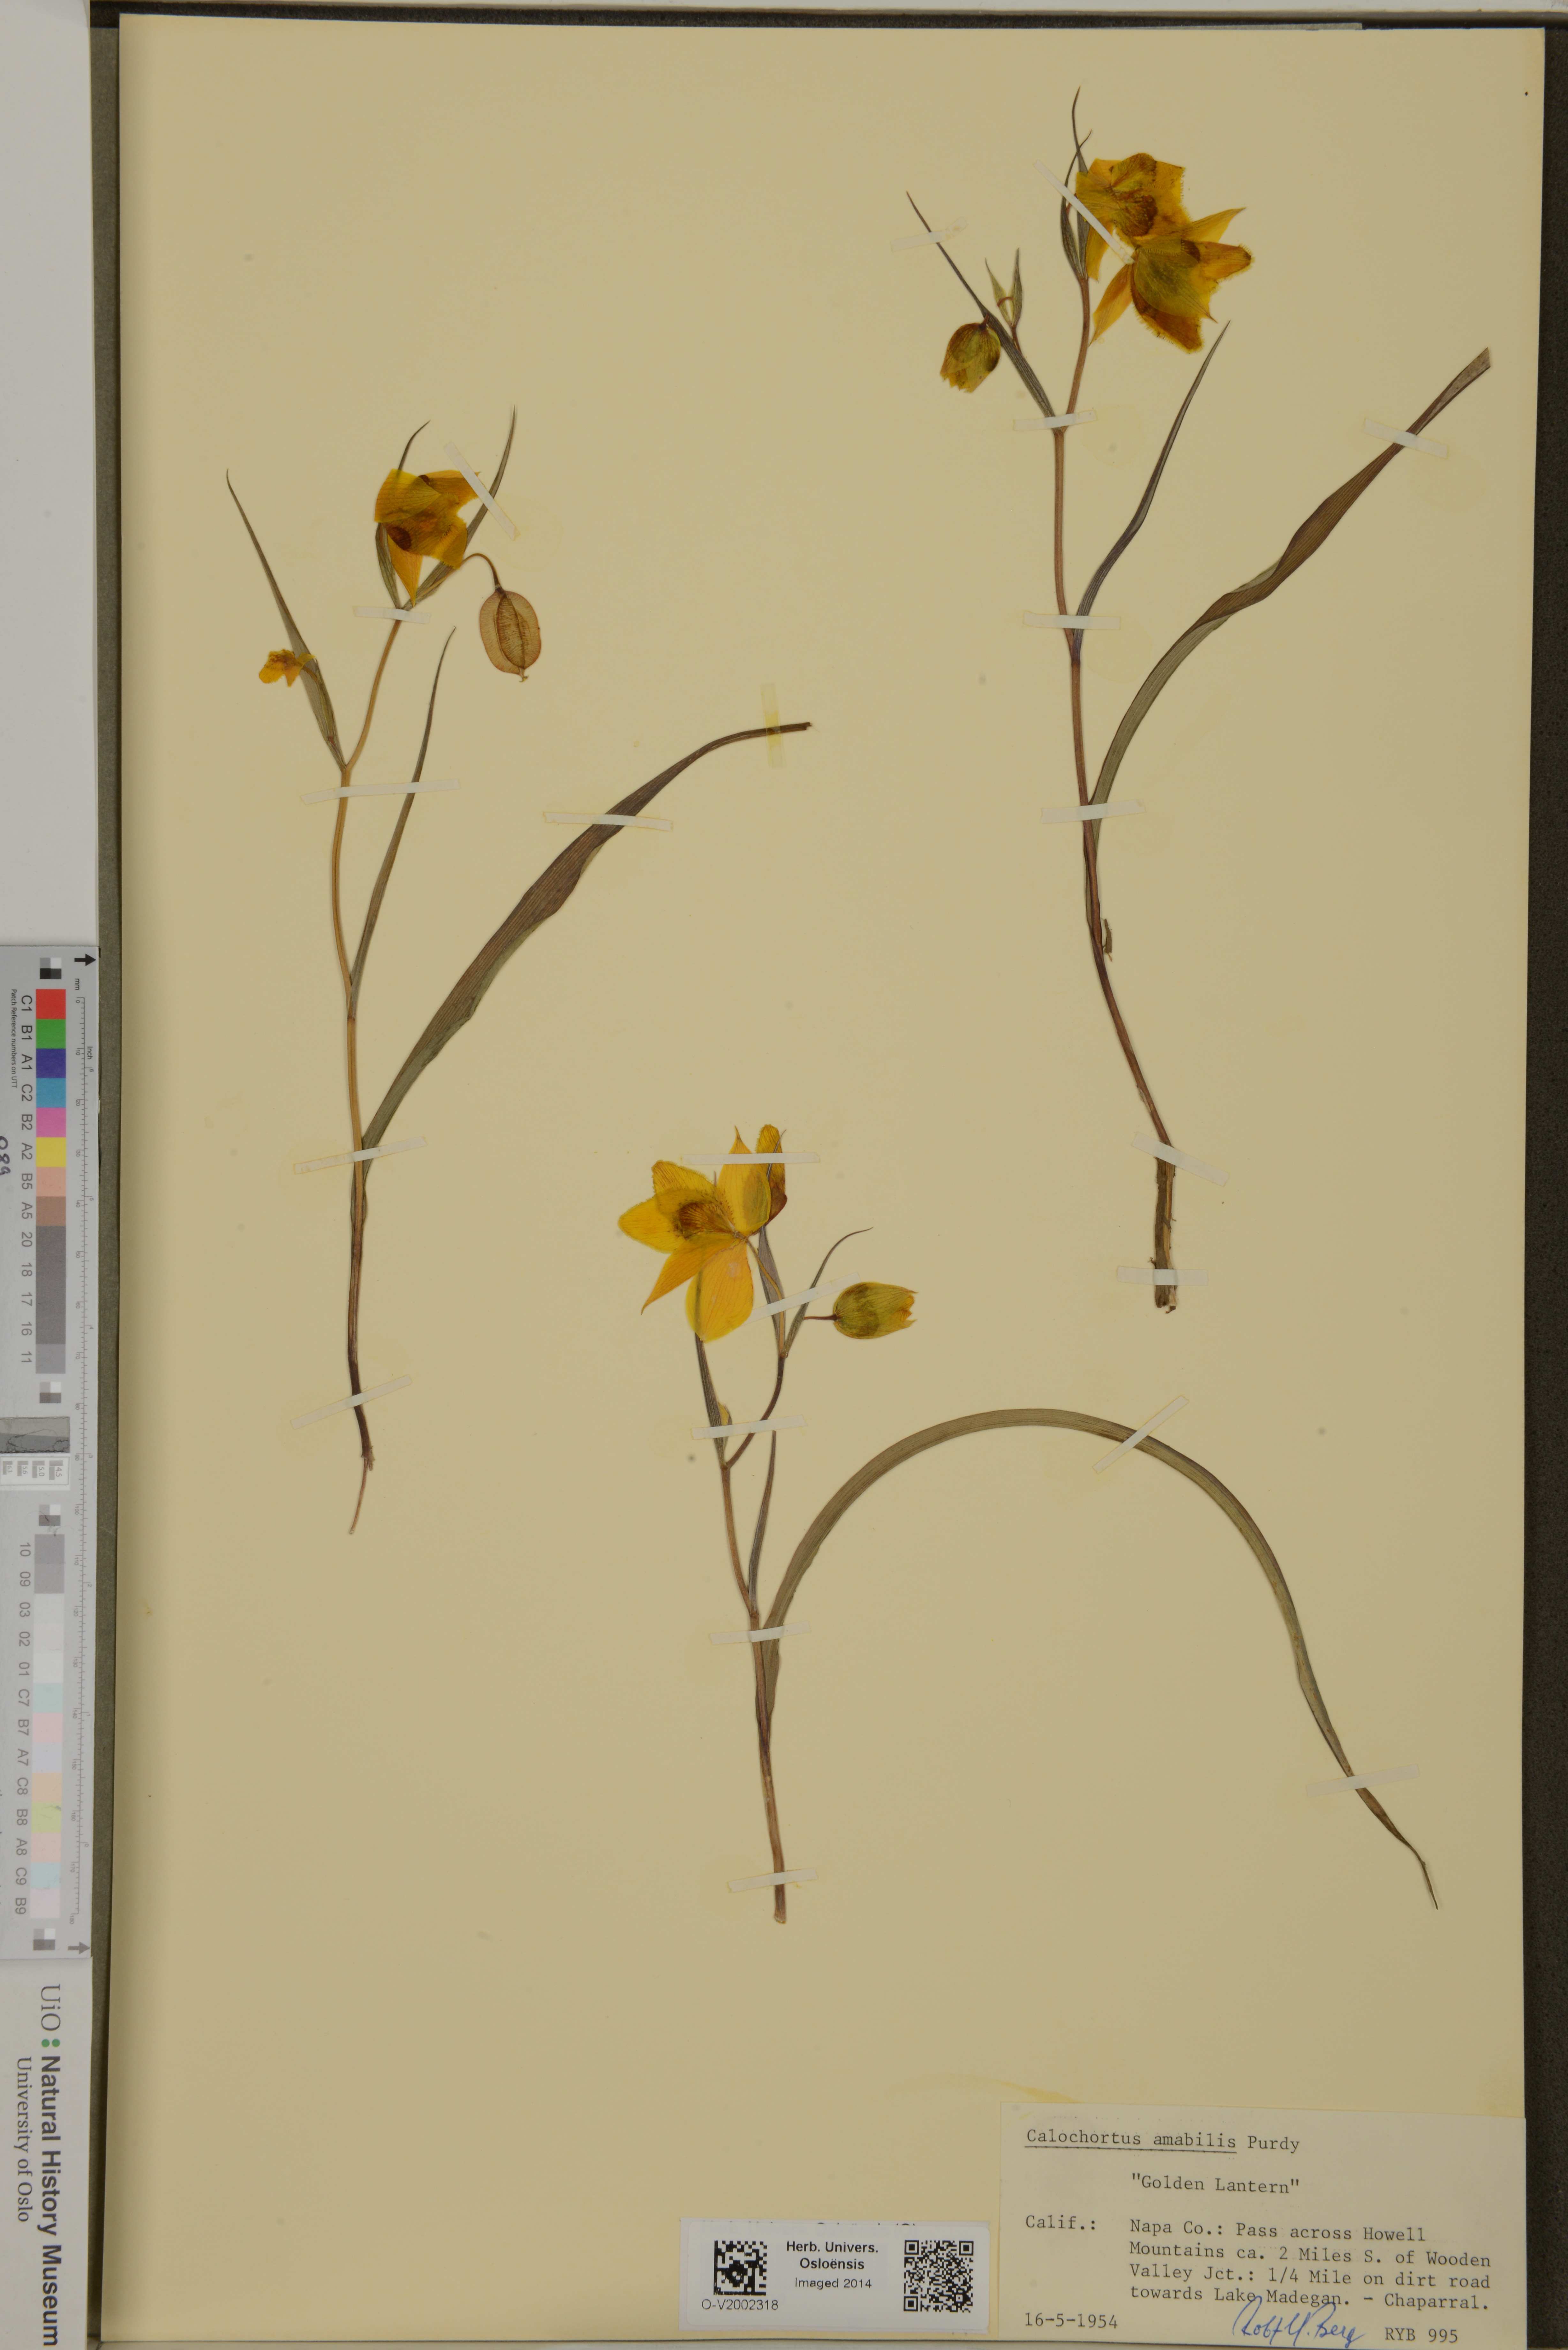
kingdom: Plantae
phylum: Tracheophyta
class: Liliopsida
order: Liliales
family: Liliaceae
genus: Calochortus
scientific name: Calochortus amabilis
